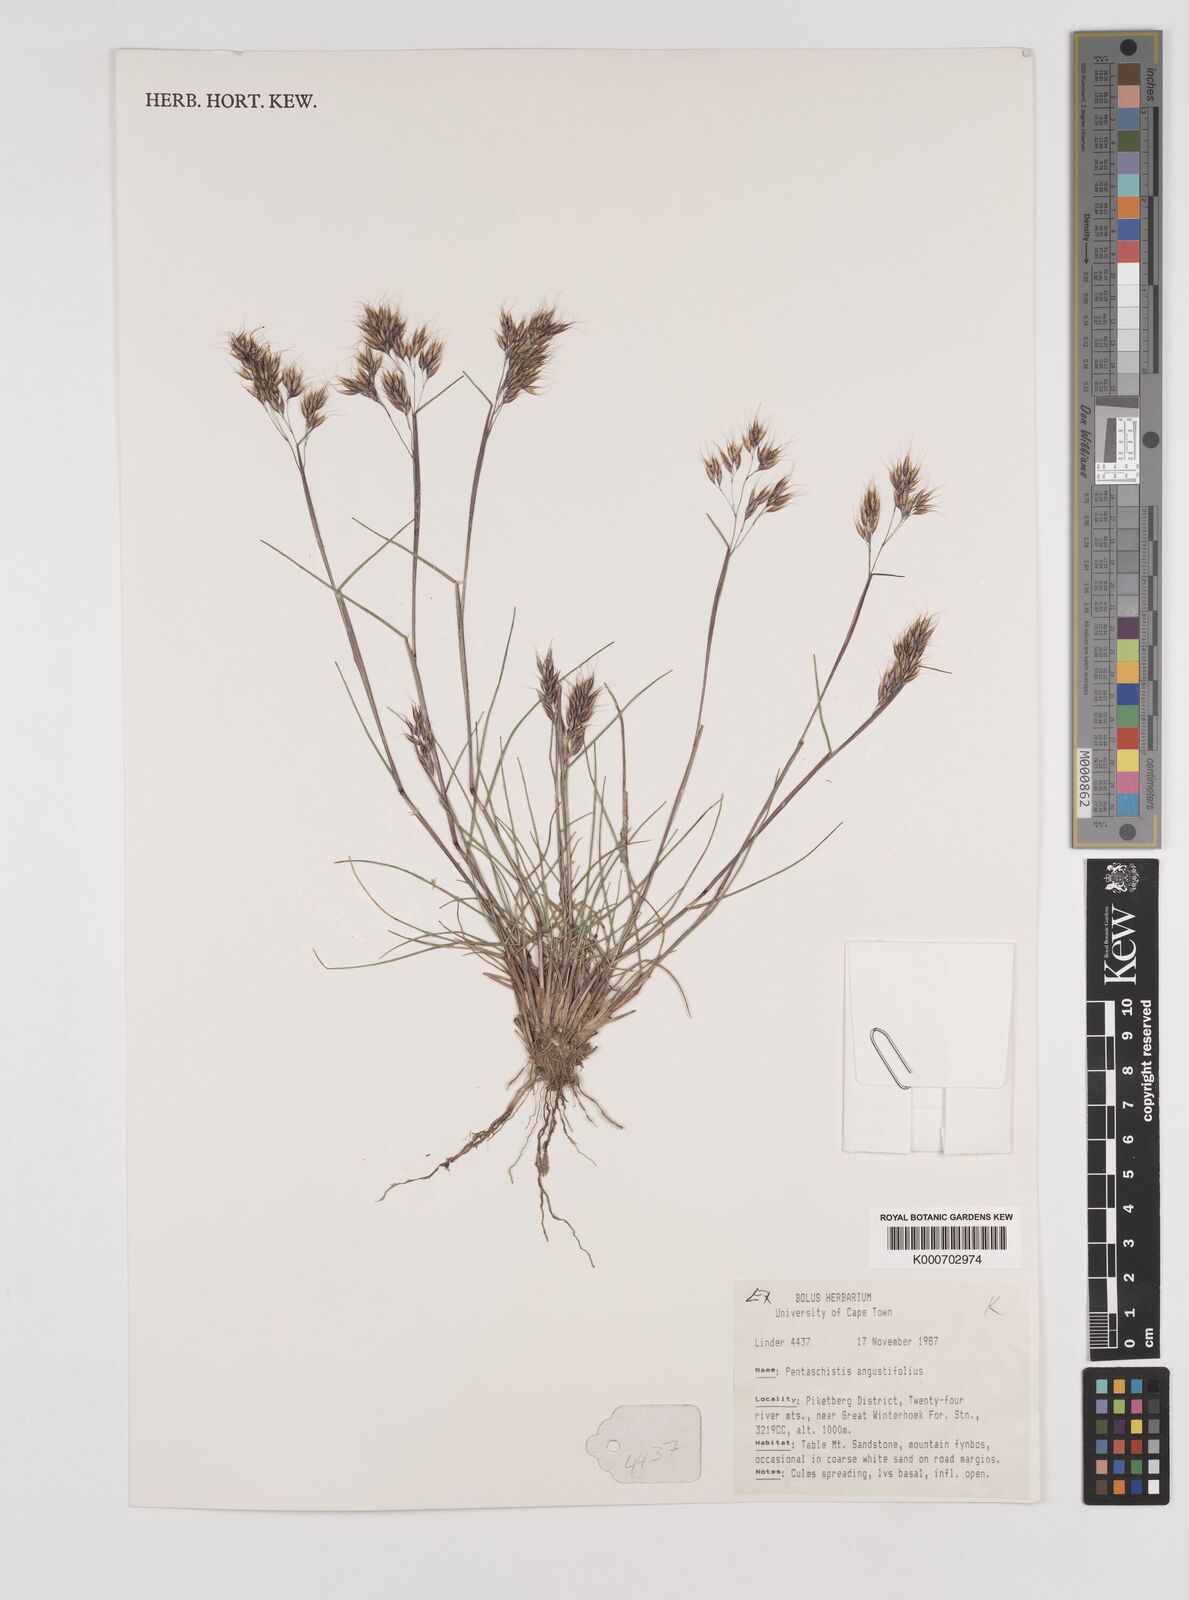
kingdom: Plantae
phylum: Tracheophyta
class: Liliopsida
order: Poales
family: Poaceae
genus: Pentameris
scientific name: Pentameris pallida
